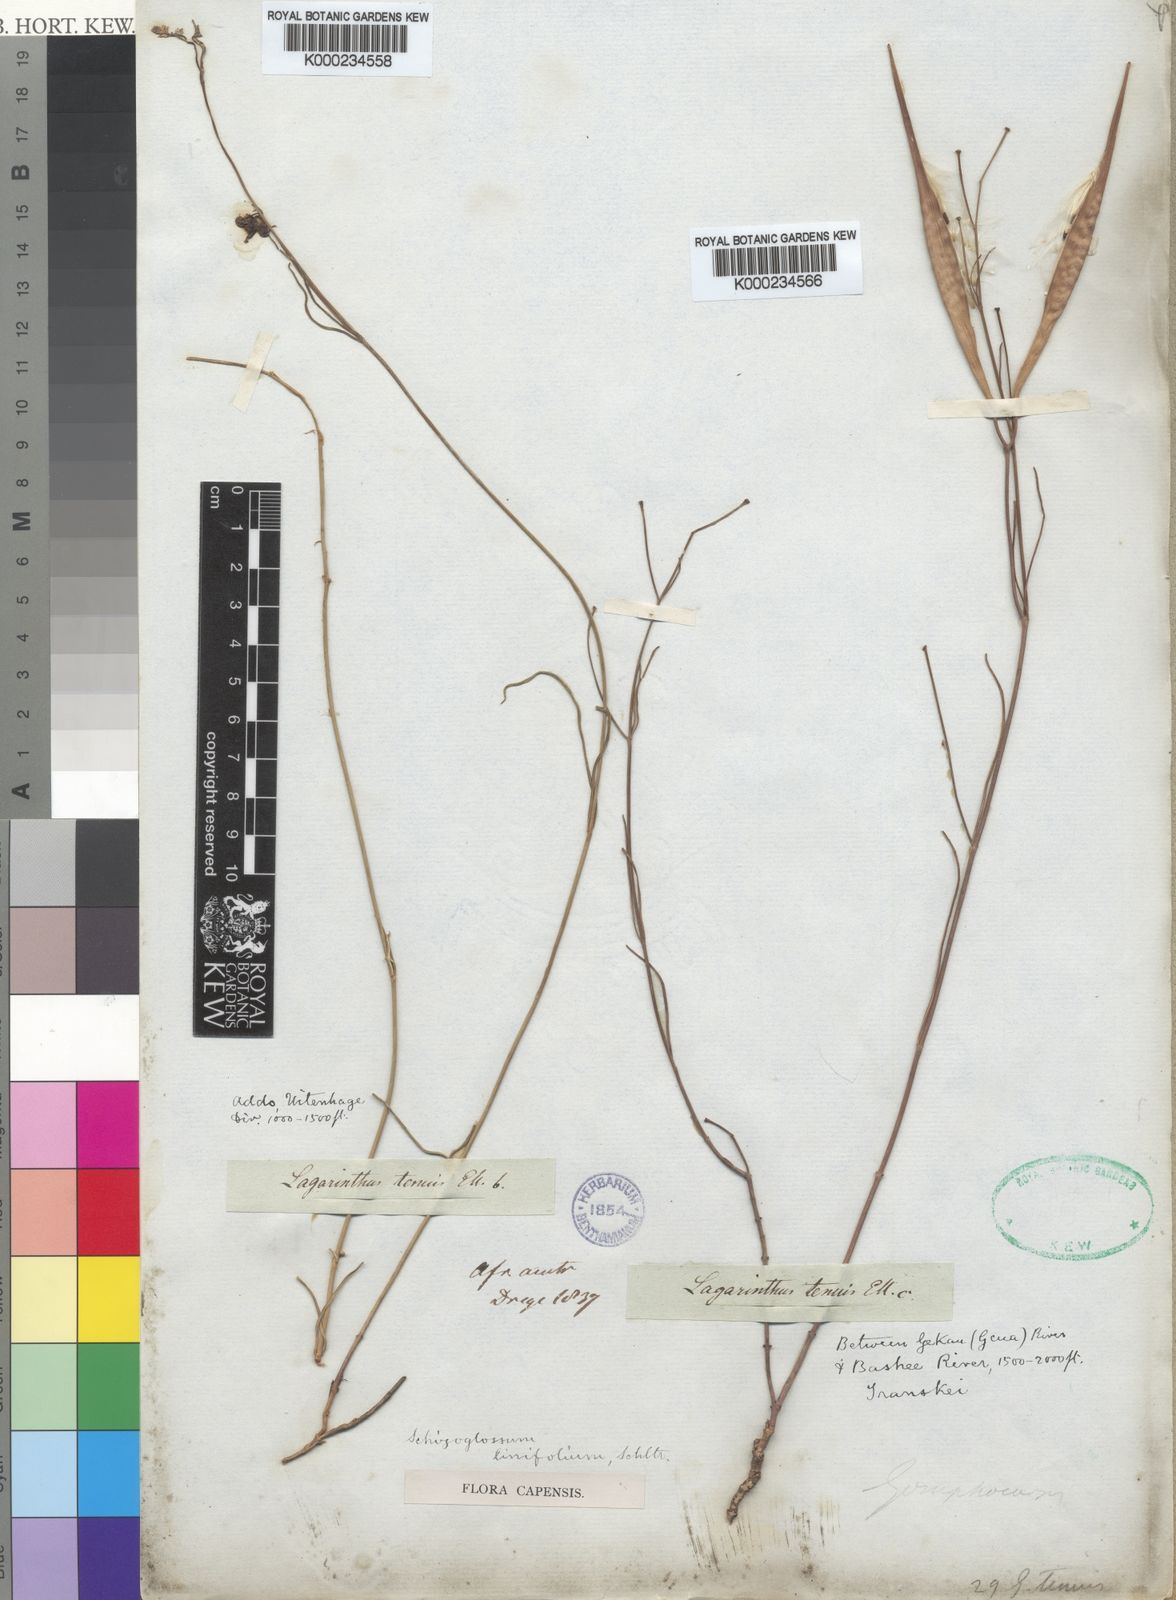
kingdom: Plantae
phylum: Tracheophyta
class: Magnoliopsida
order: Gentianales
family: Apocynaceae
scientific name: Apocynaceae
